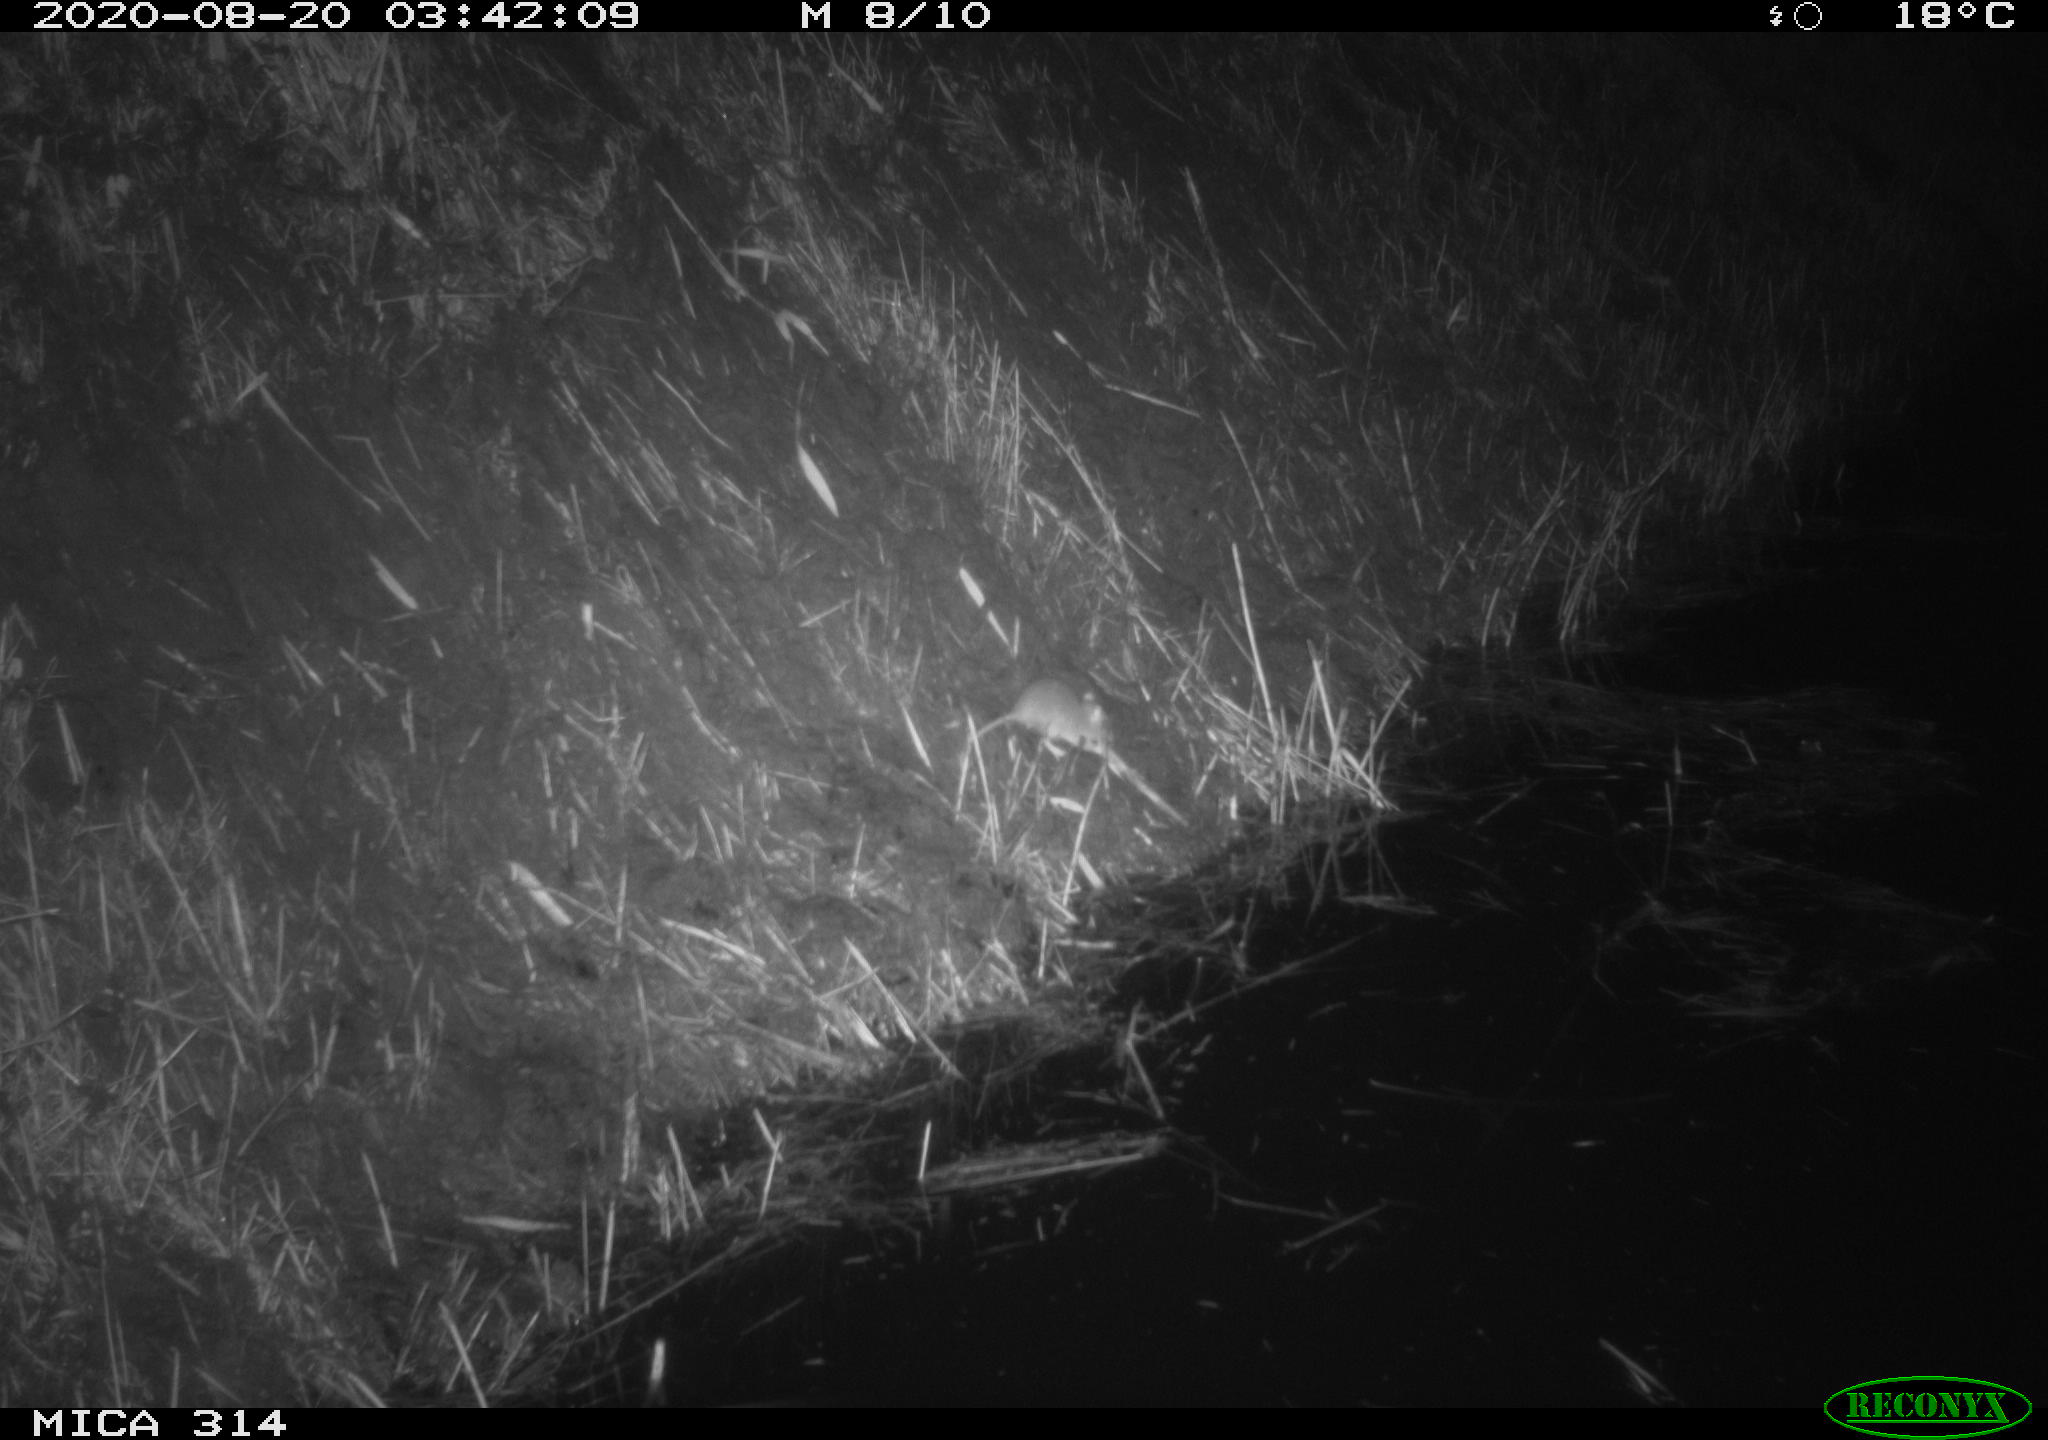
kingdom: Animalia
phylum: Chordata
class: Mammalia
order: Rodentia
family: Muridae
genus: Rattus
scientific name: Rattus norvegicus
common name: Brown rat
